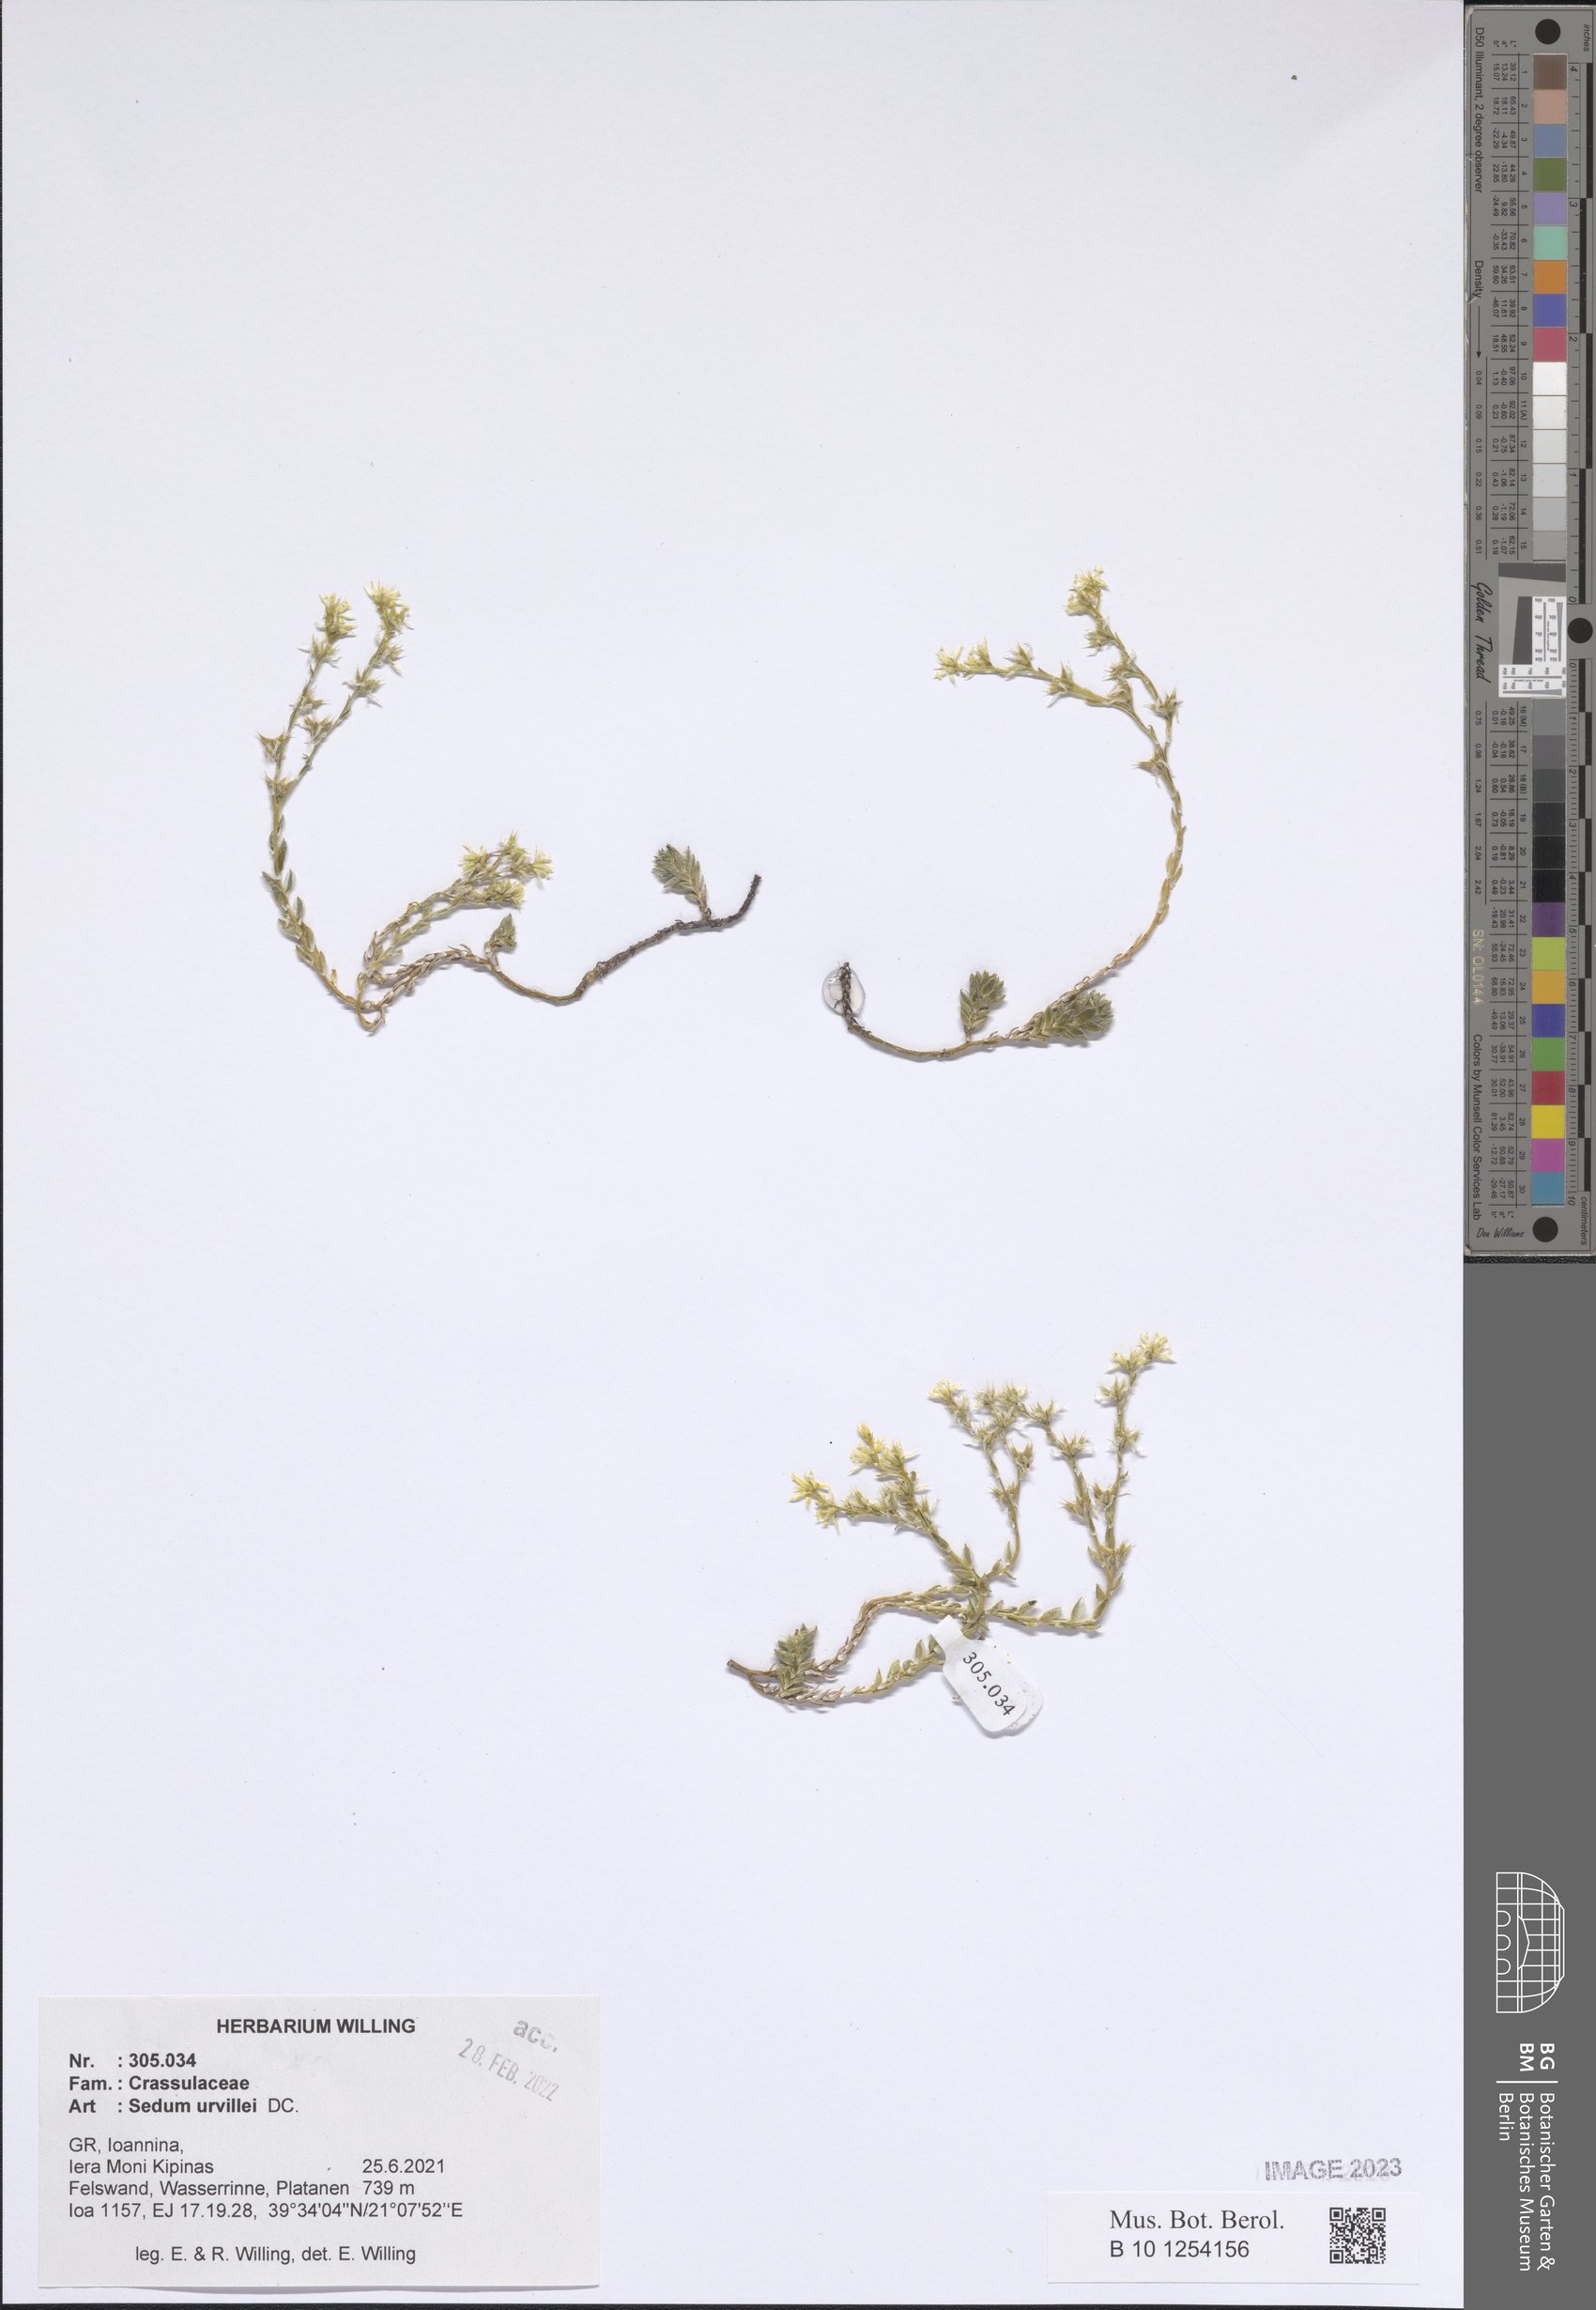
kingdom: Plantae
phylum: Tracheophyta
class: Magnoliopsida
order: Saxifragales
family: Crassulaceae
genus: Sedum
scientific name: Sedum urvillei
